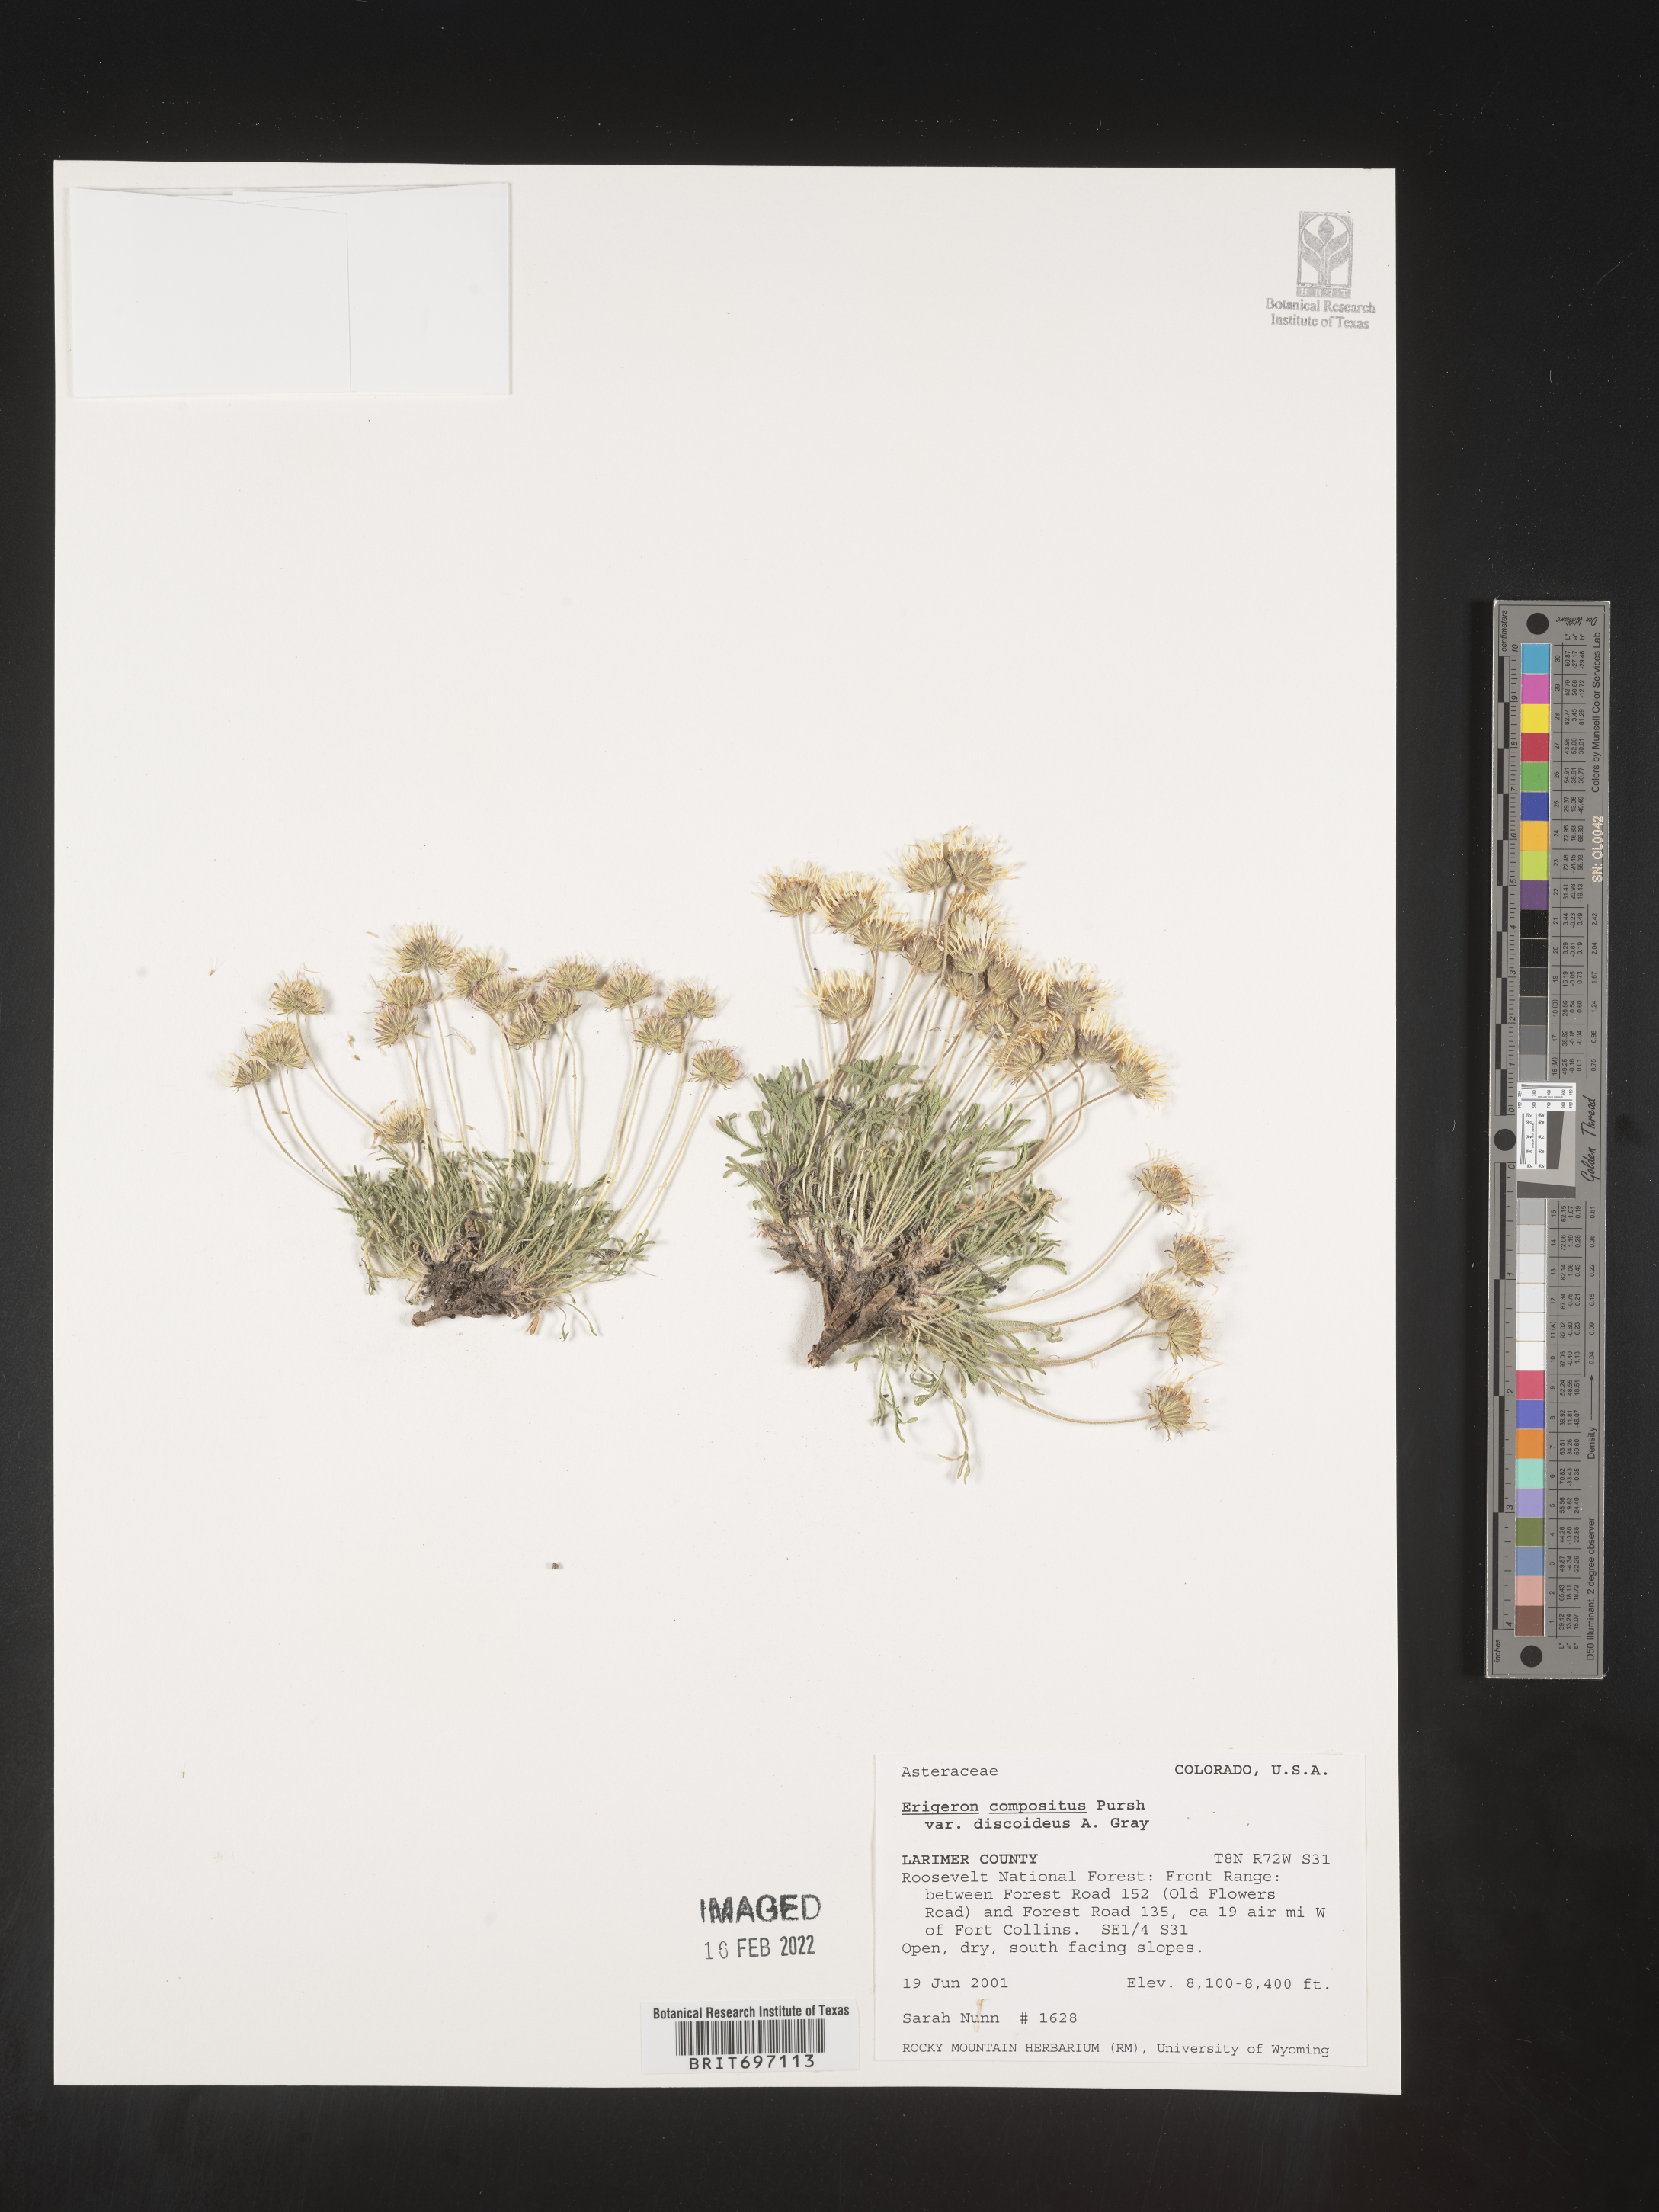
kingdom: Plantae
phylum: Tracheophyta
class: Magnoliopsida
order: Asterales
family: Asteraceae
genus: Erigeron
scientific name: Erigeron compositus
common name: Dwarf mountain fleabane
